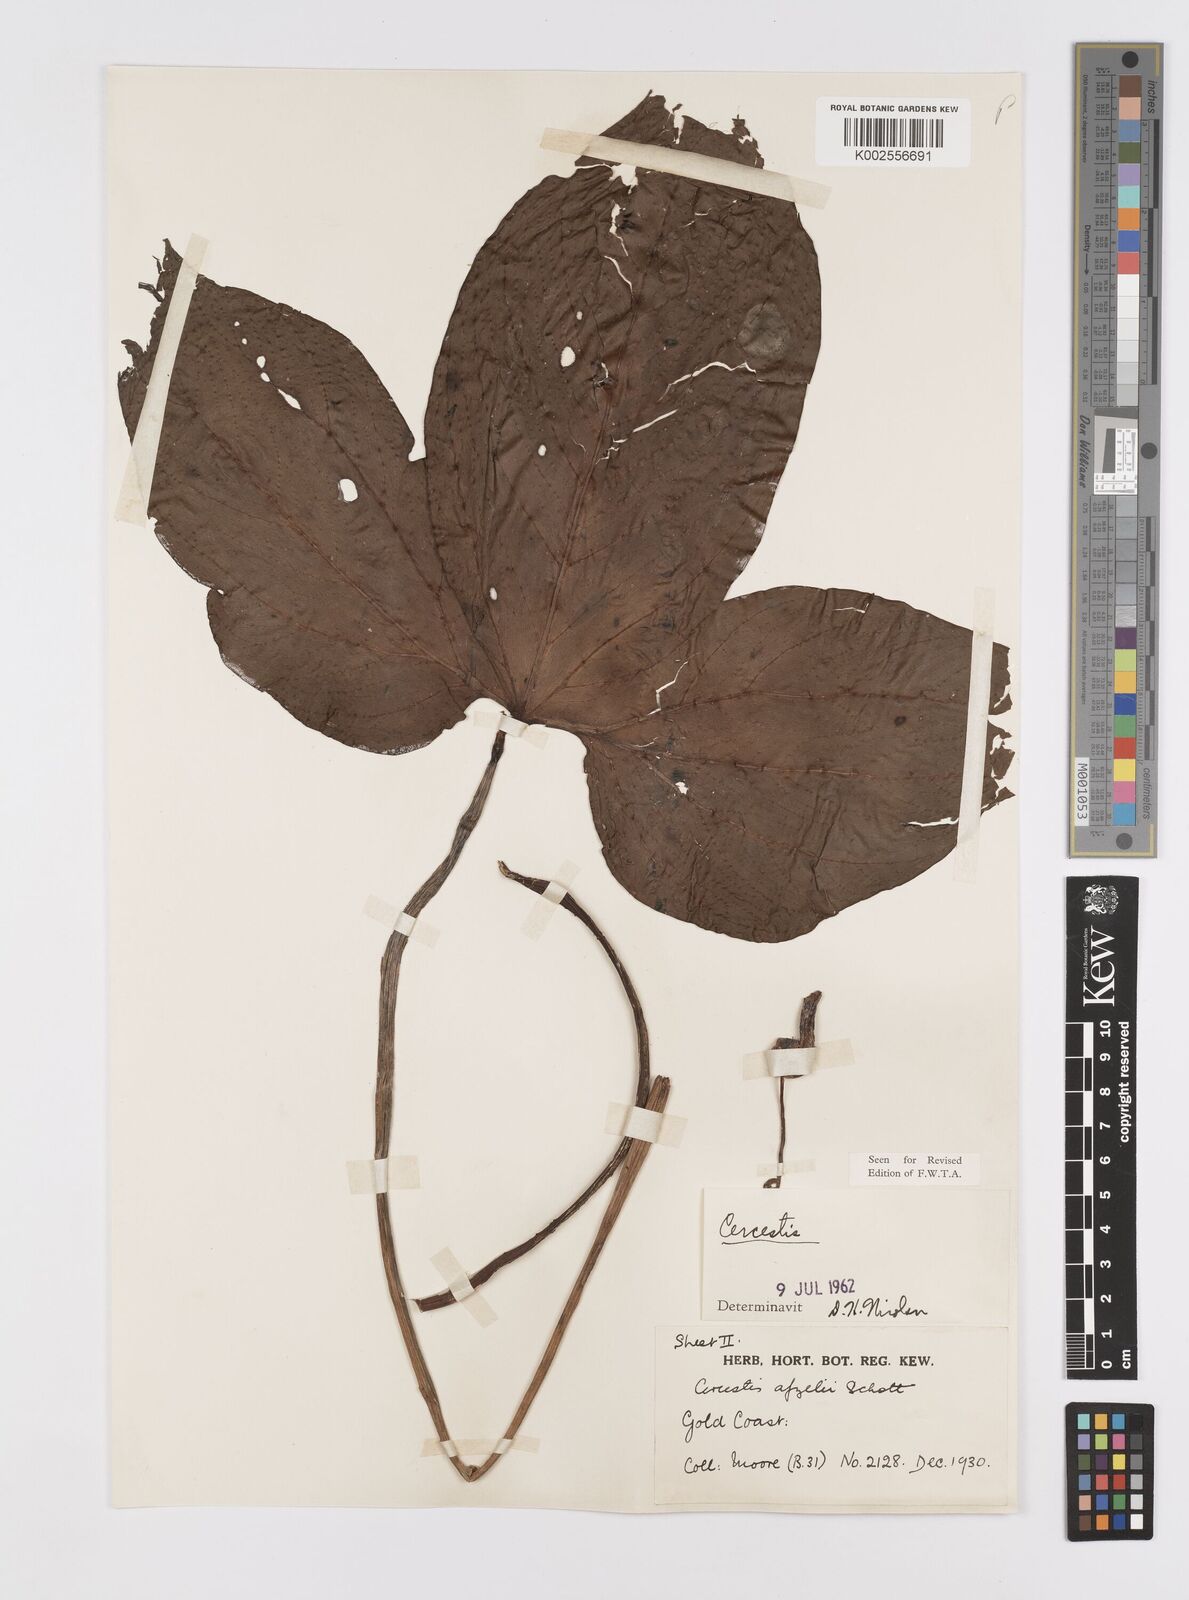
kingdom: Plantae
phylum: Tracheophyta
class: Liliopsida
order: Alismatales
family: Araceae
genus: Cercestis
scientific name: Cercestis afzelii
